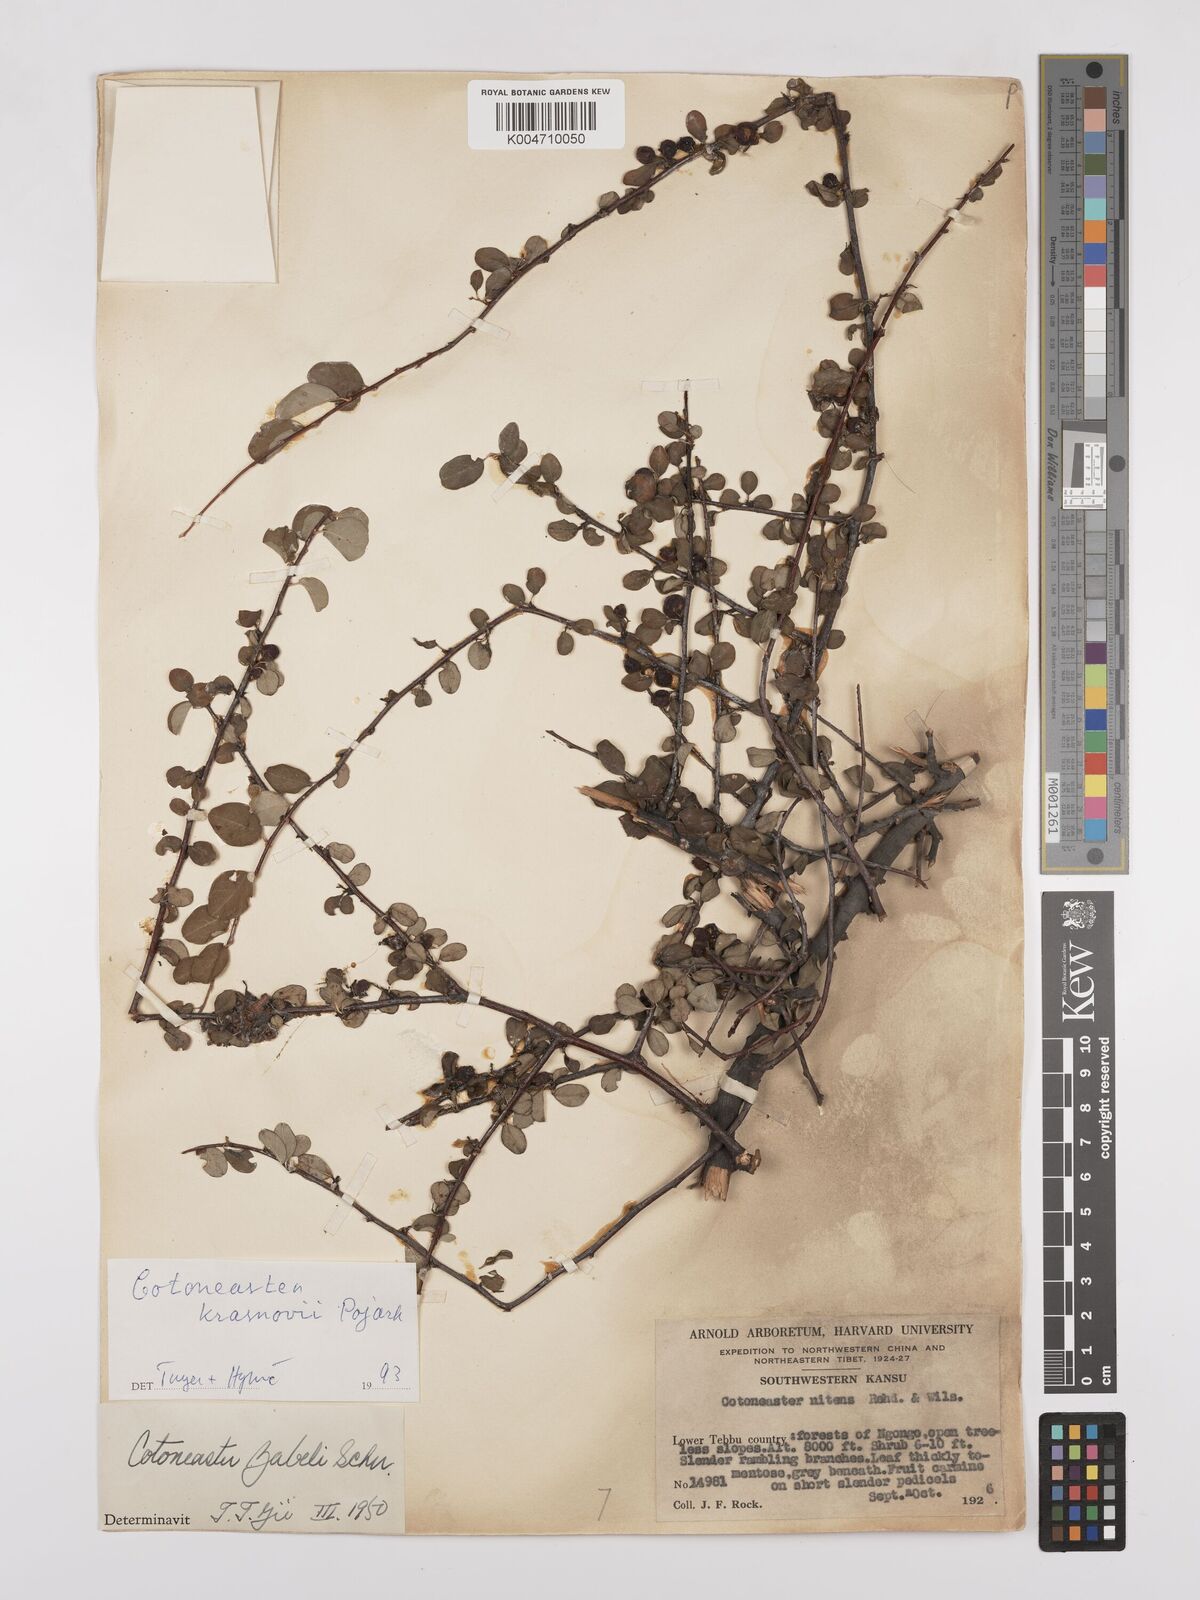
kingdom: Plantae
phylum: Tracheophyta
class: Magnoliopsida
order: Rosales
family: Rosaceae
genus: Cotoneaster
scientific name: Cotoneaster verruculosus
